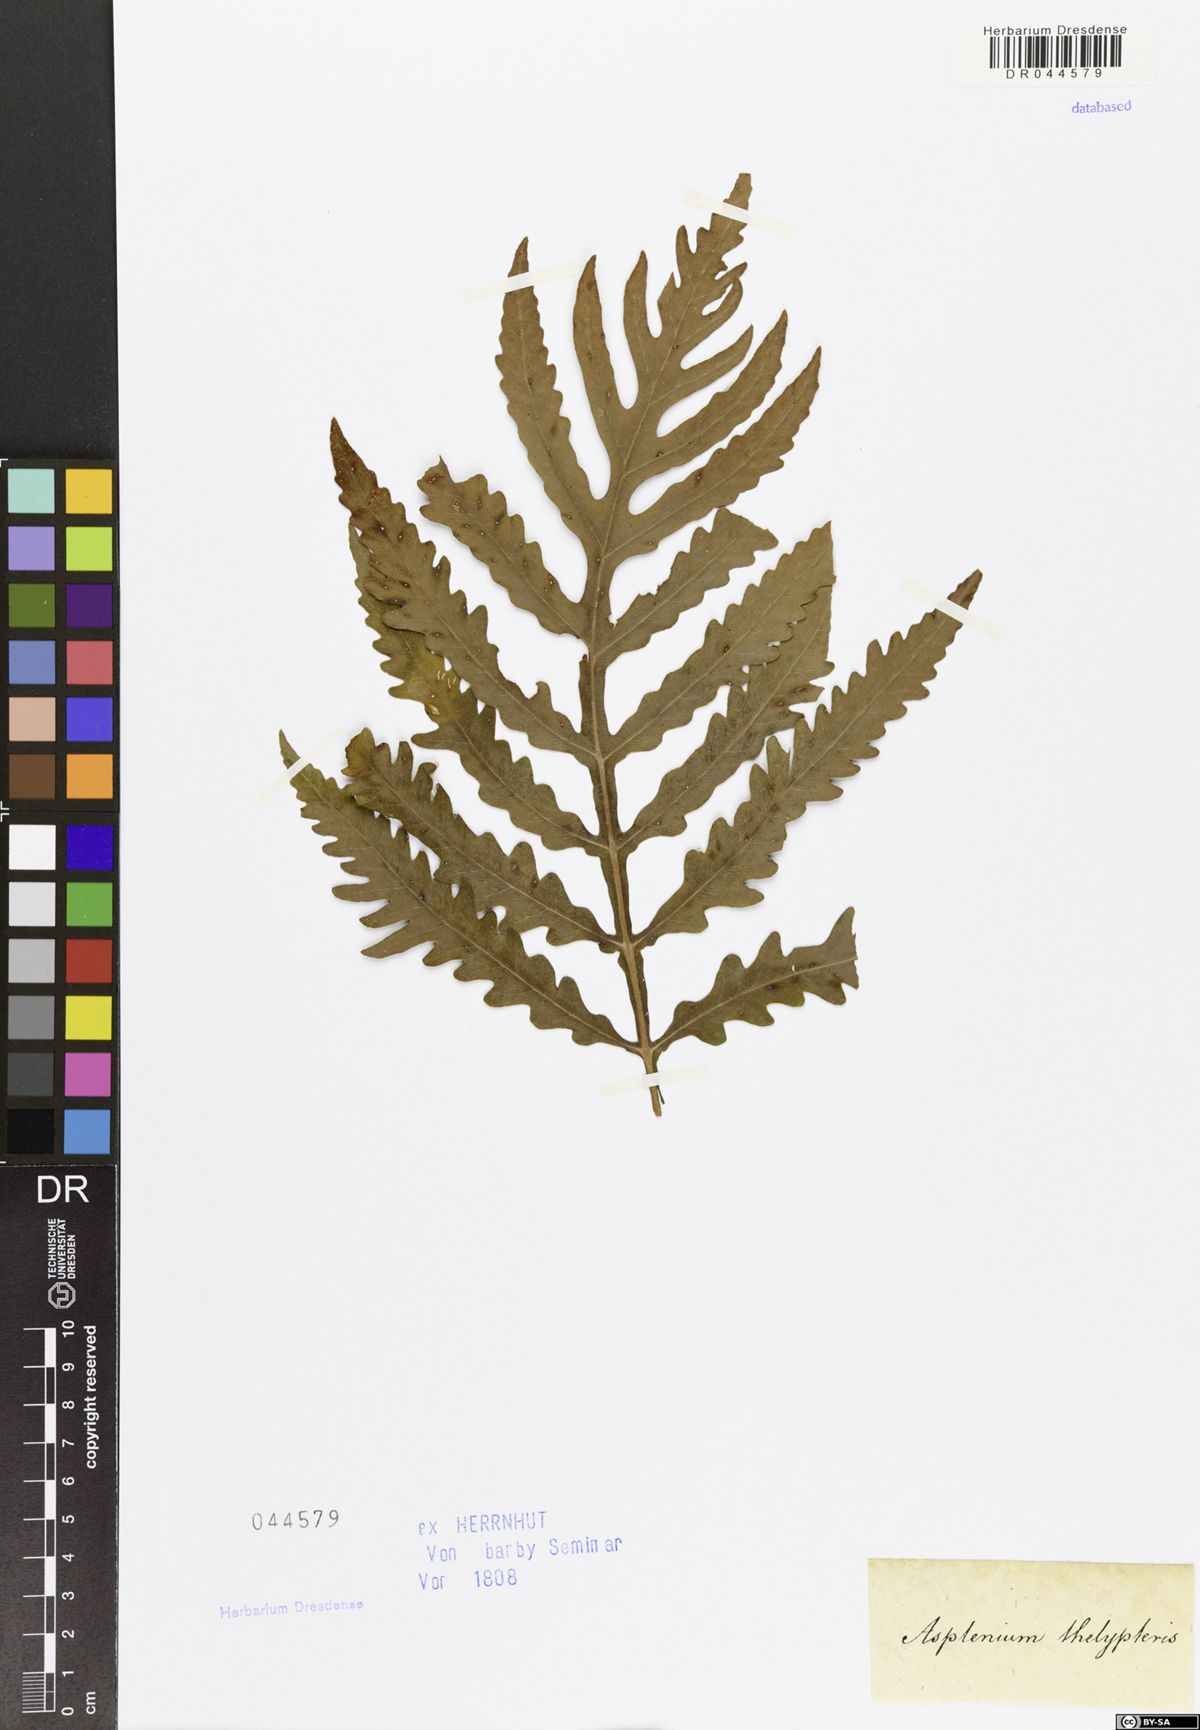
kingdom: Plantae
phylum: Tracheophyta
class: Polypodiopsida
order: Polypodiales
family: Onocleaceae
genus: Onoclea
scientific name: Onoclea sensibilis
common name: Sensitive fern
